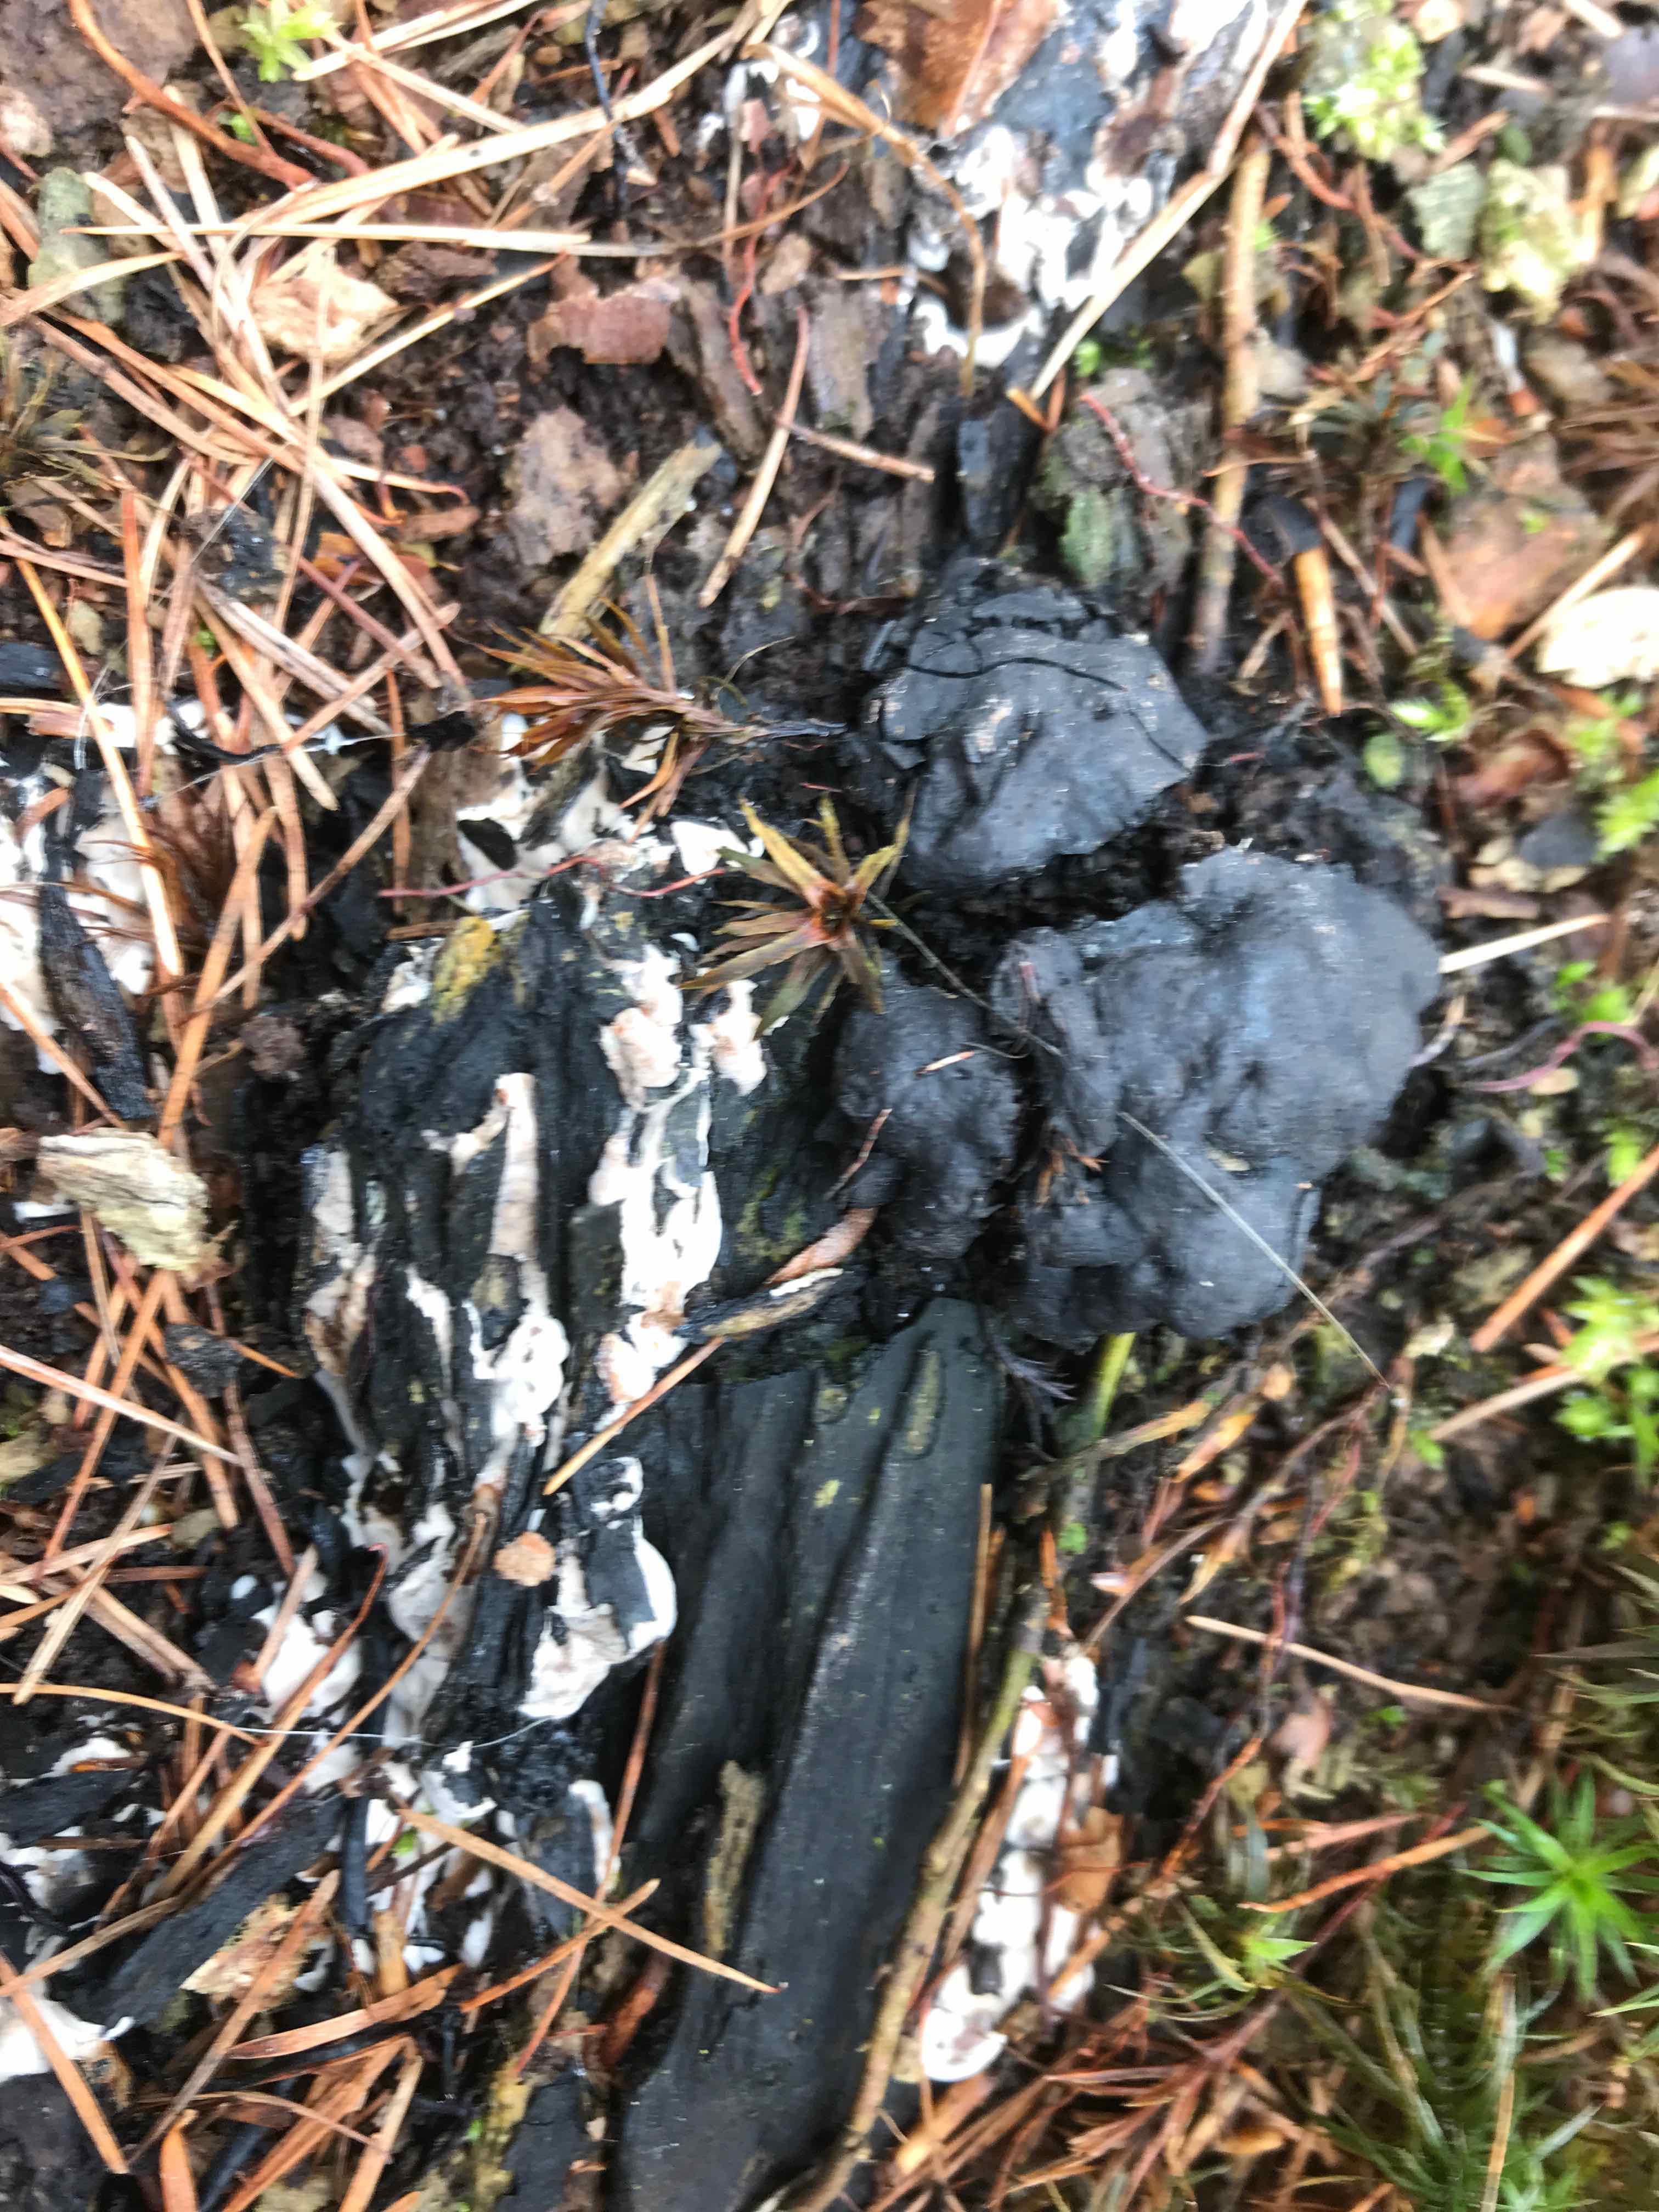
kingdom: Fungi
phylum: Ascomycota
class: Sordariomycetes
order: Xylariales
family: Xylariaceae
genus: Kretzschmaria
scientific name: Kretzschmaria deusta
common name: stor kulsvamp
